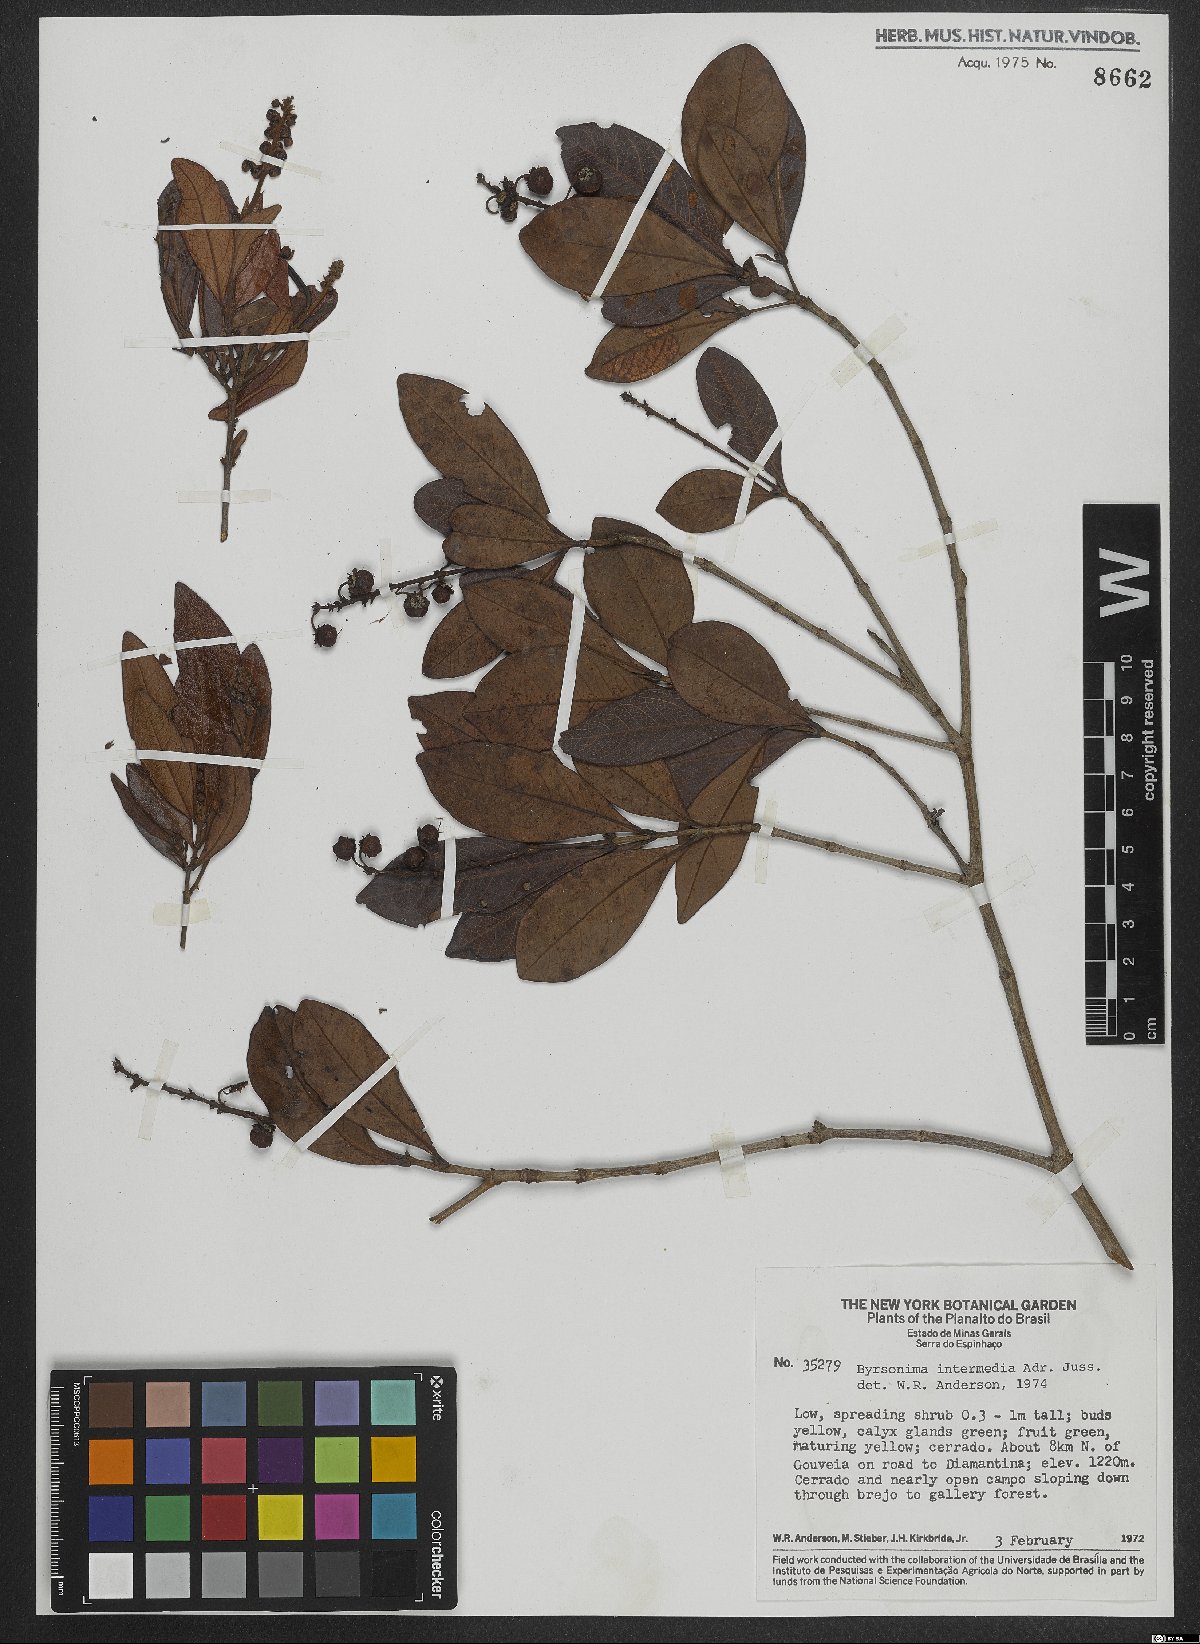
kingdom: Plantae
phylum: Tracheophyta
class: Magnoliopsida
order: Malpighiales
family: Malpighiaceae
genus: Byrsonima
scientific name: Byrsonima intermedia
